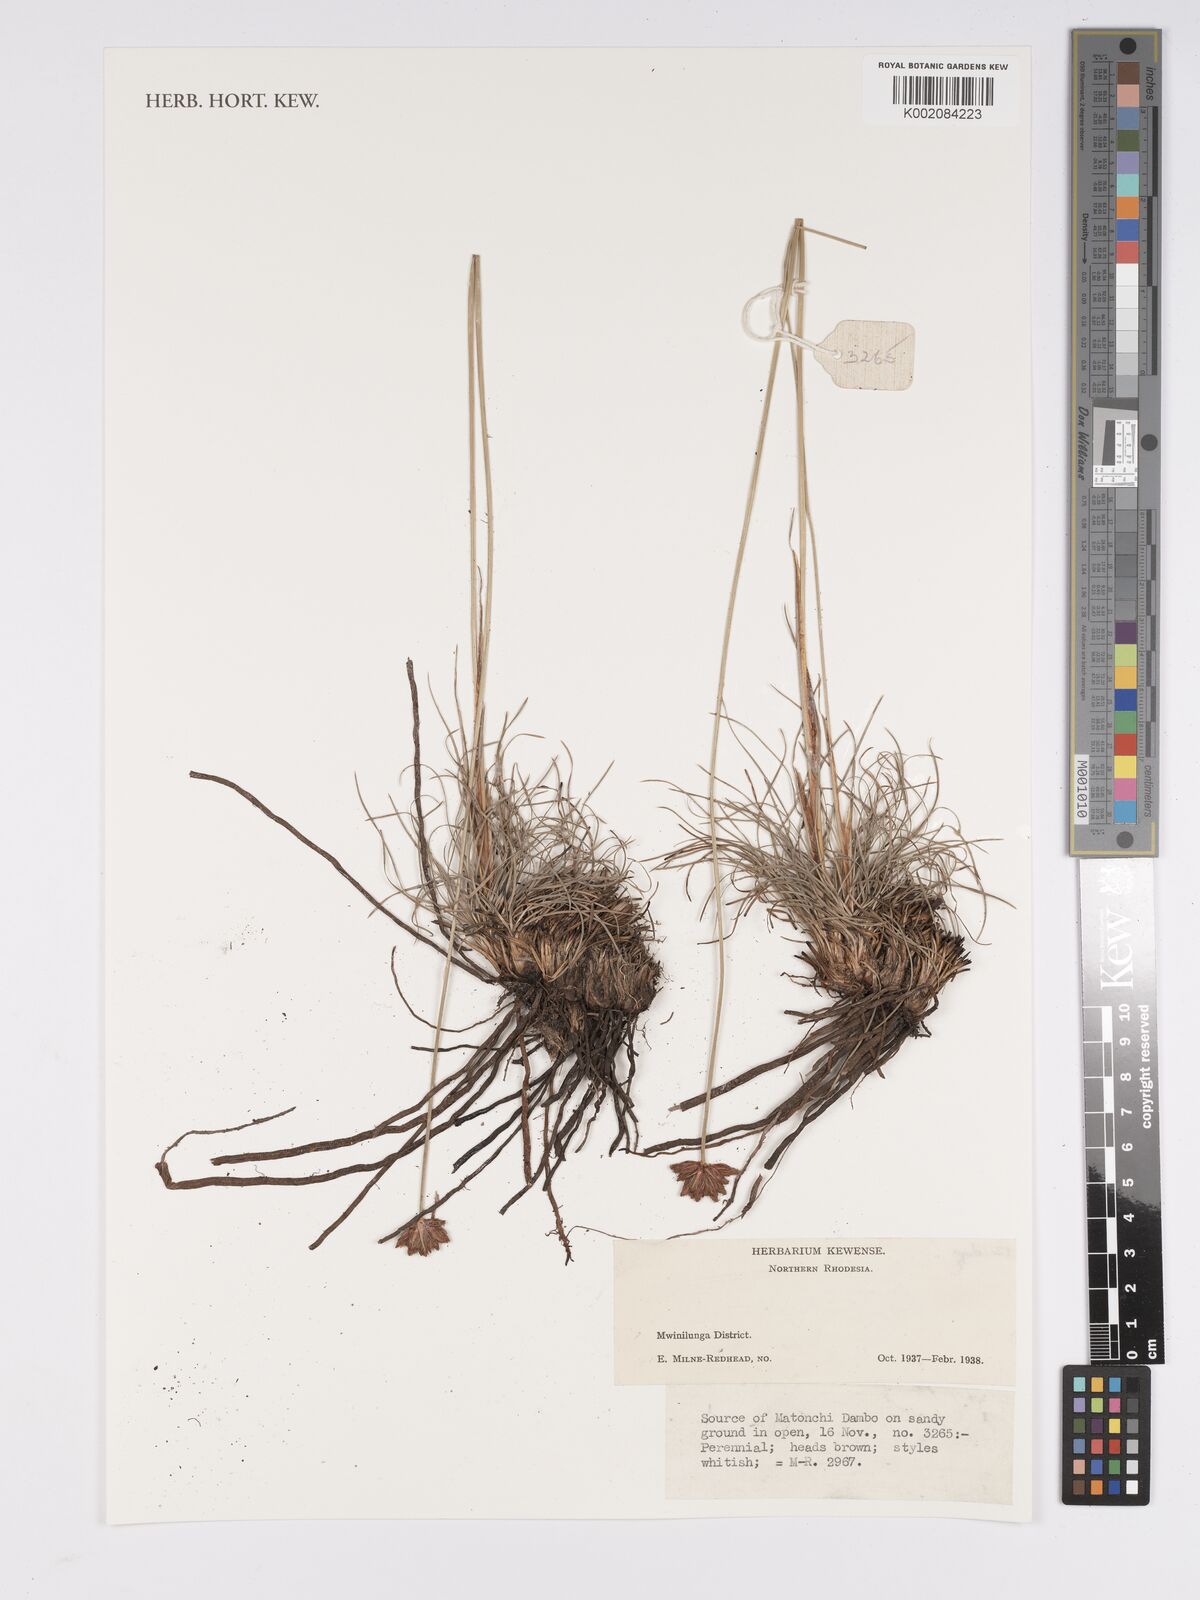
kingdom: Plantae
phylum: Tracheophyta
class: Liliopsida
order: Poales
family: Cyperaceae
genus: Bulbostylis
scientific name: Bulbostylis
